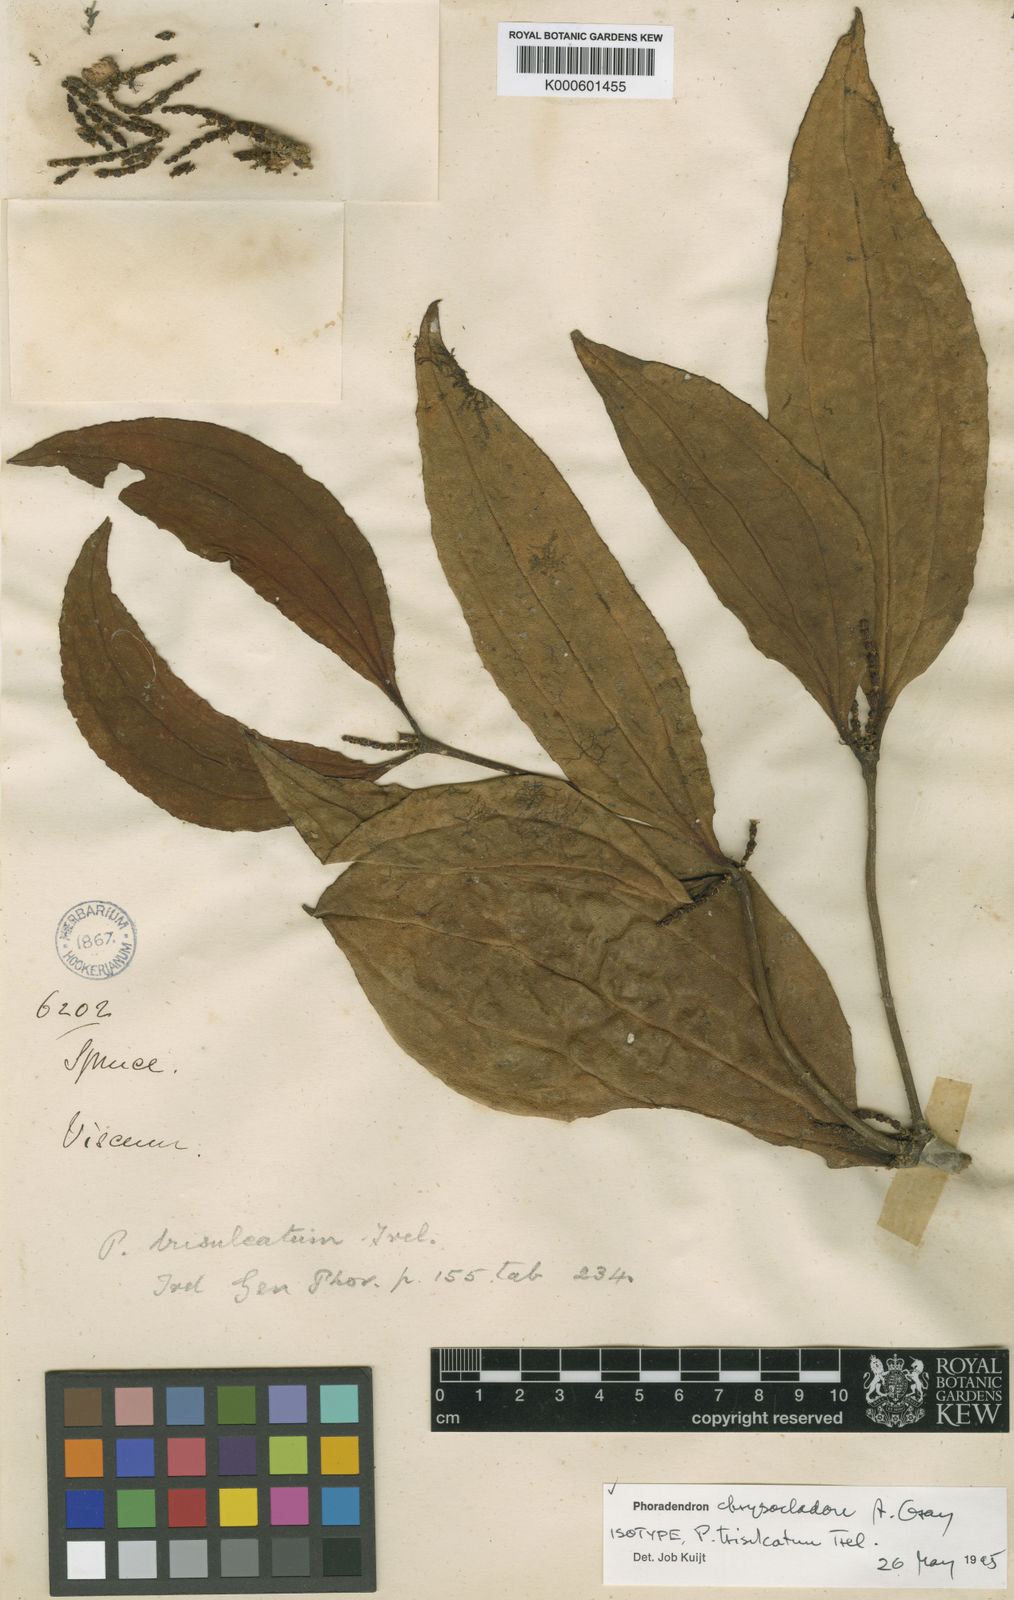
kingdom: Plantae
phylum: Tracheophyta
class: Magnoliopsida
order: Santalales
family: Viscaceae
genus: Phoradendron
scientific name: Phoradendron chrysocladon
